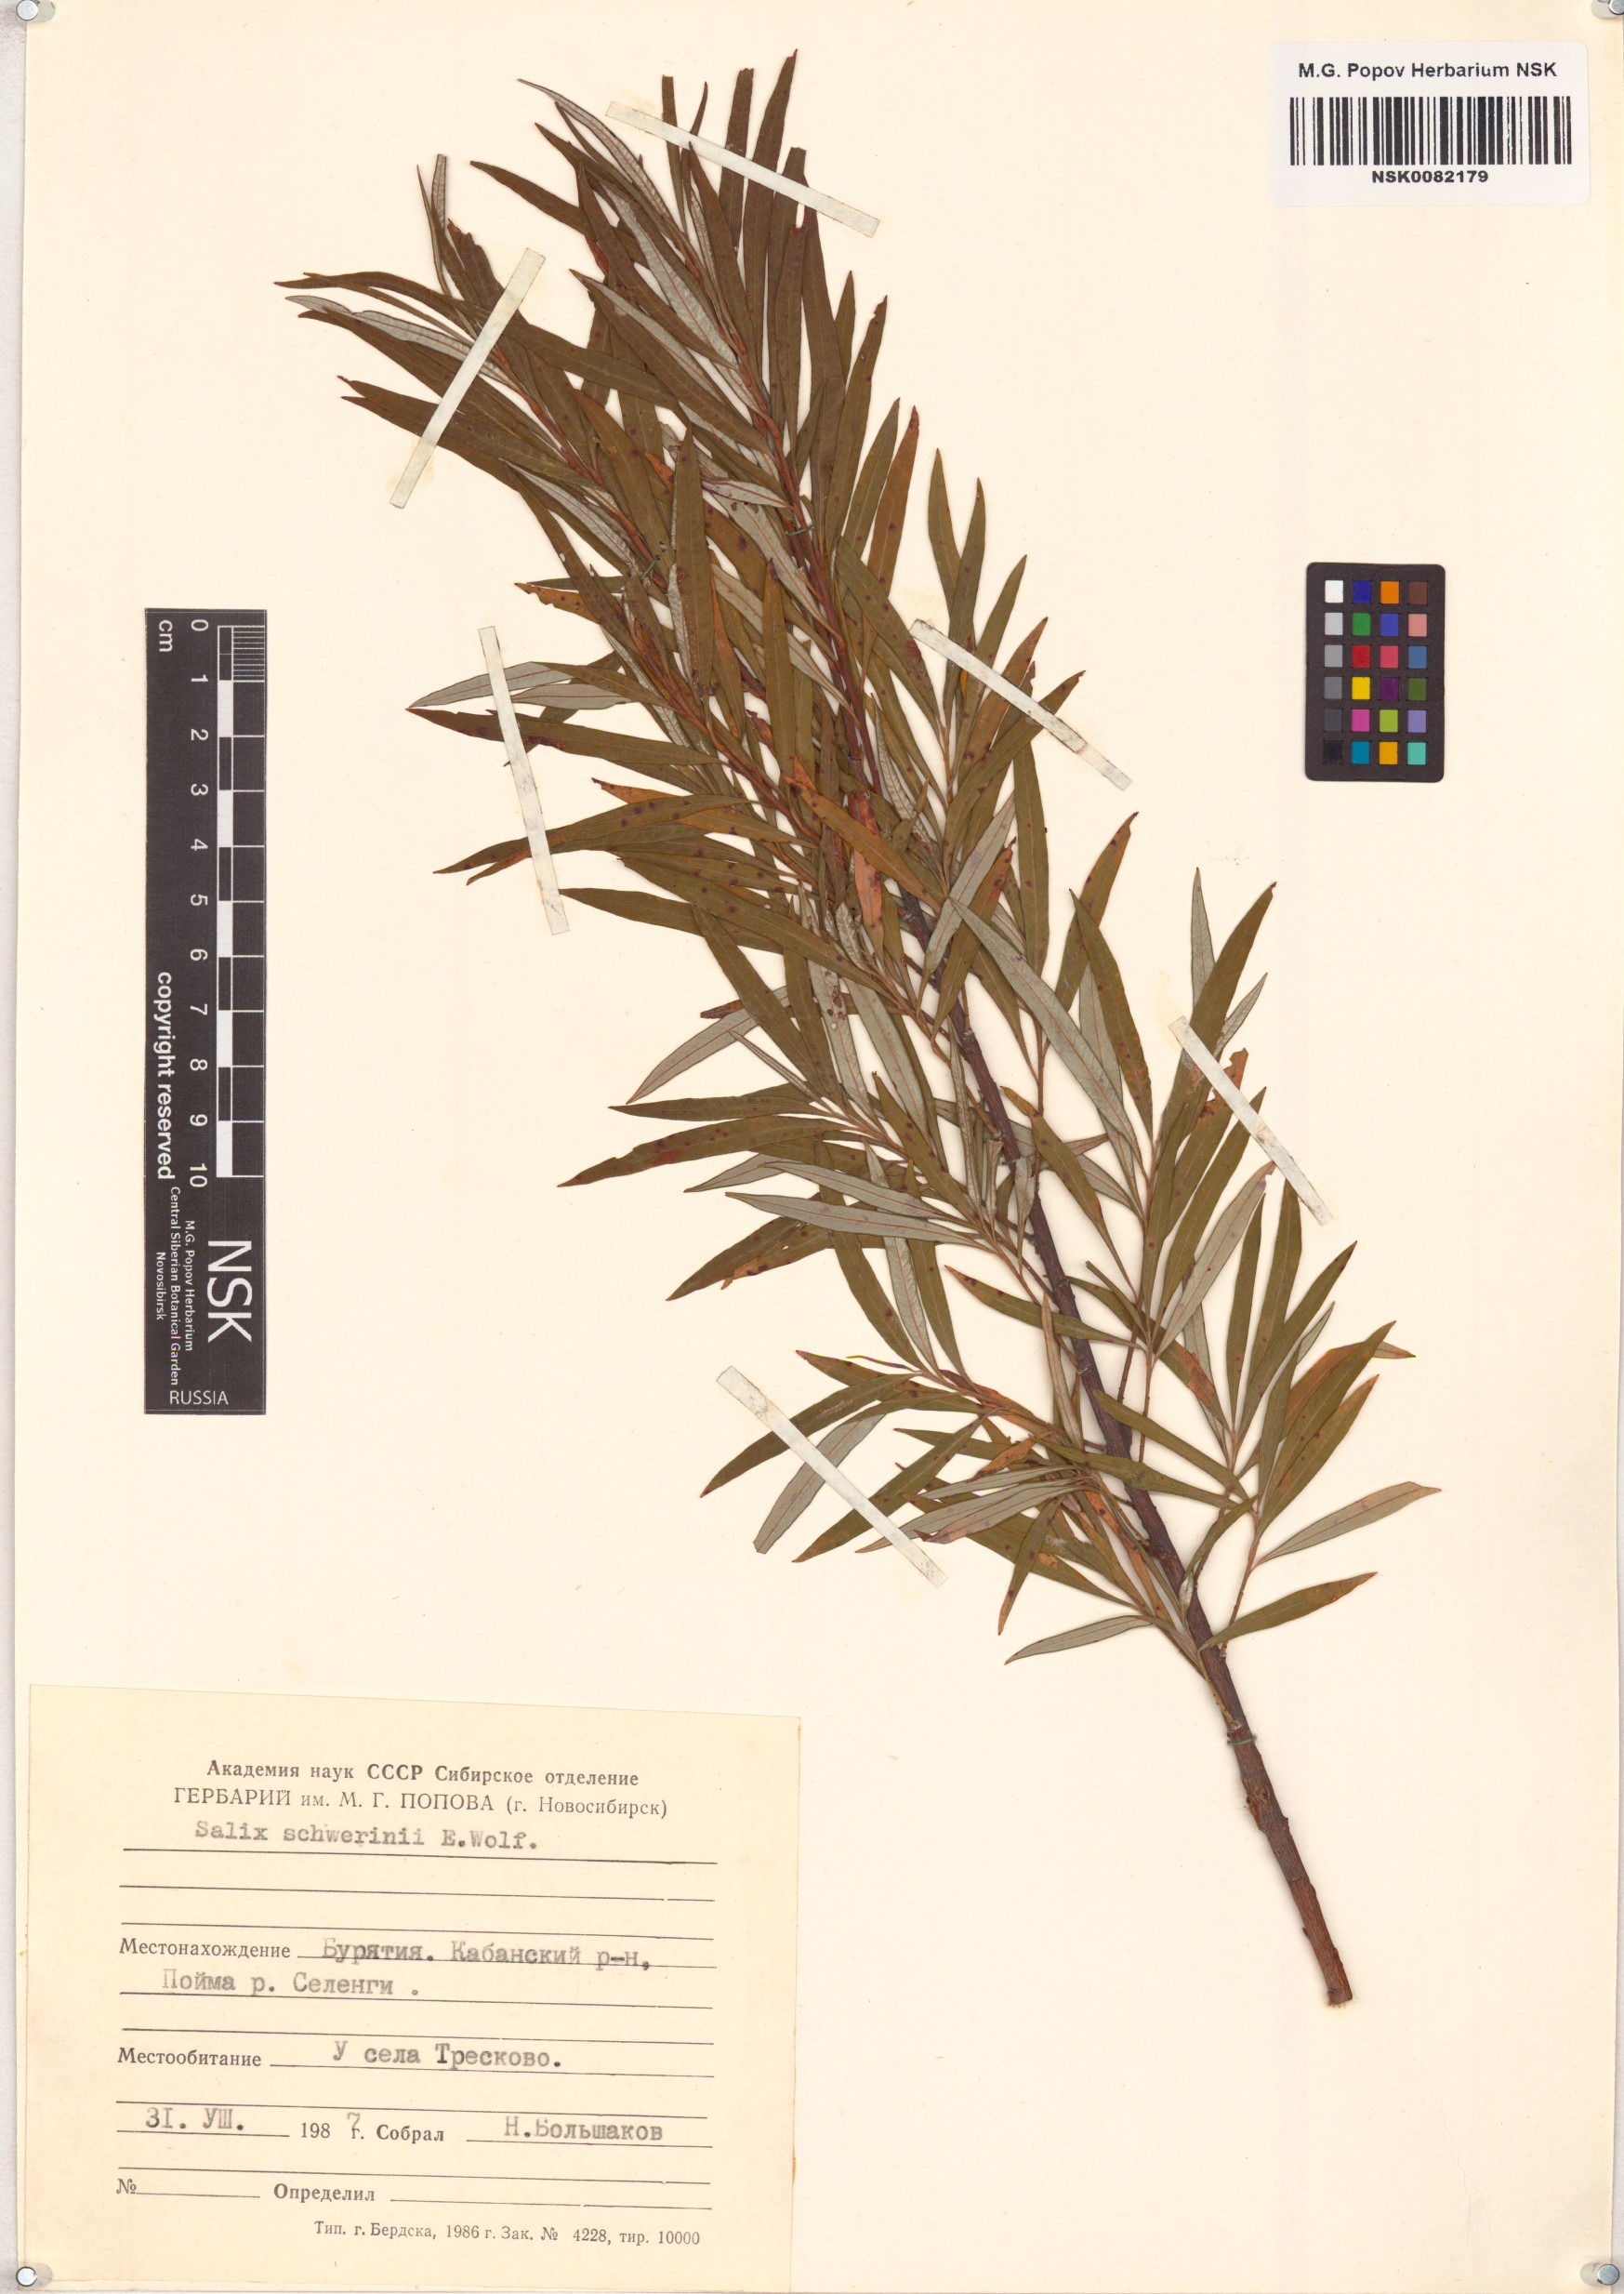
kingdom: Plantae
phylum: Tracheophyta
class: Magnoliopsida
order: Malpighiales
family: Salicaceae
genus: Salix
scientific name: Salix schwerinii
